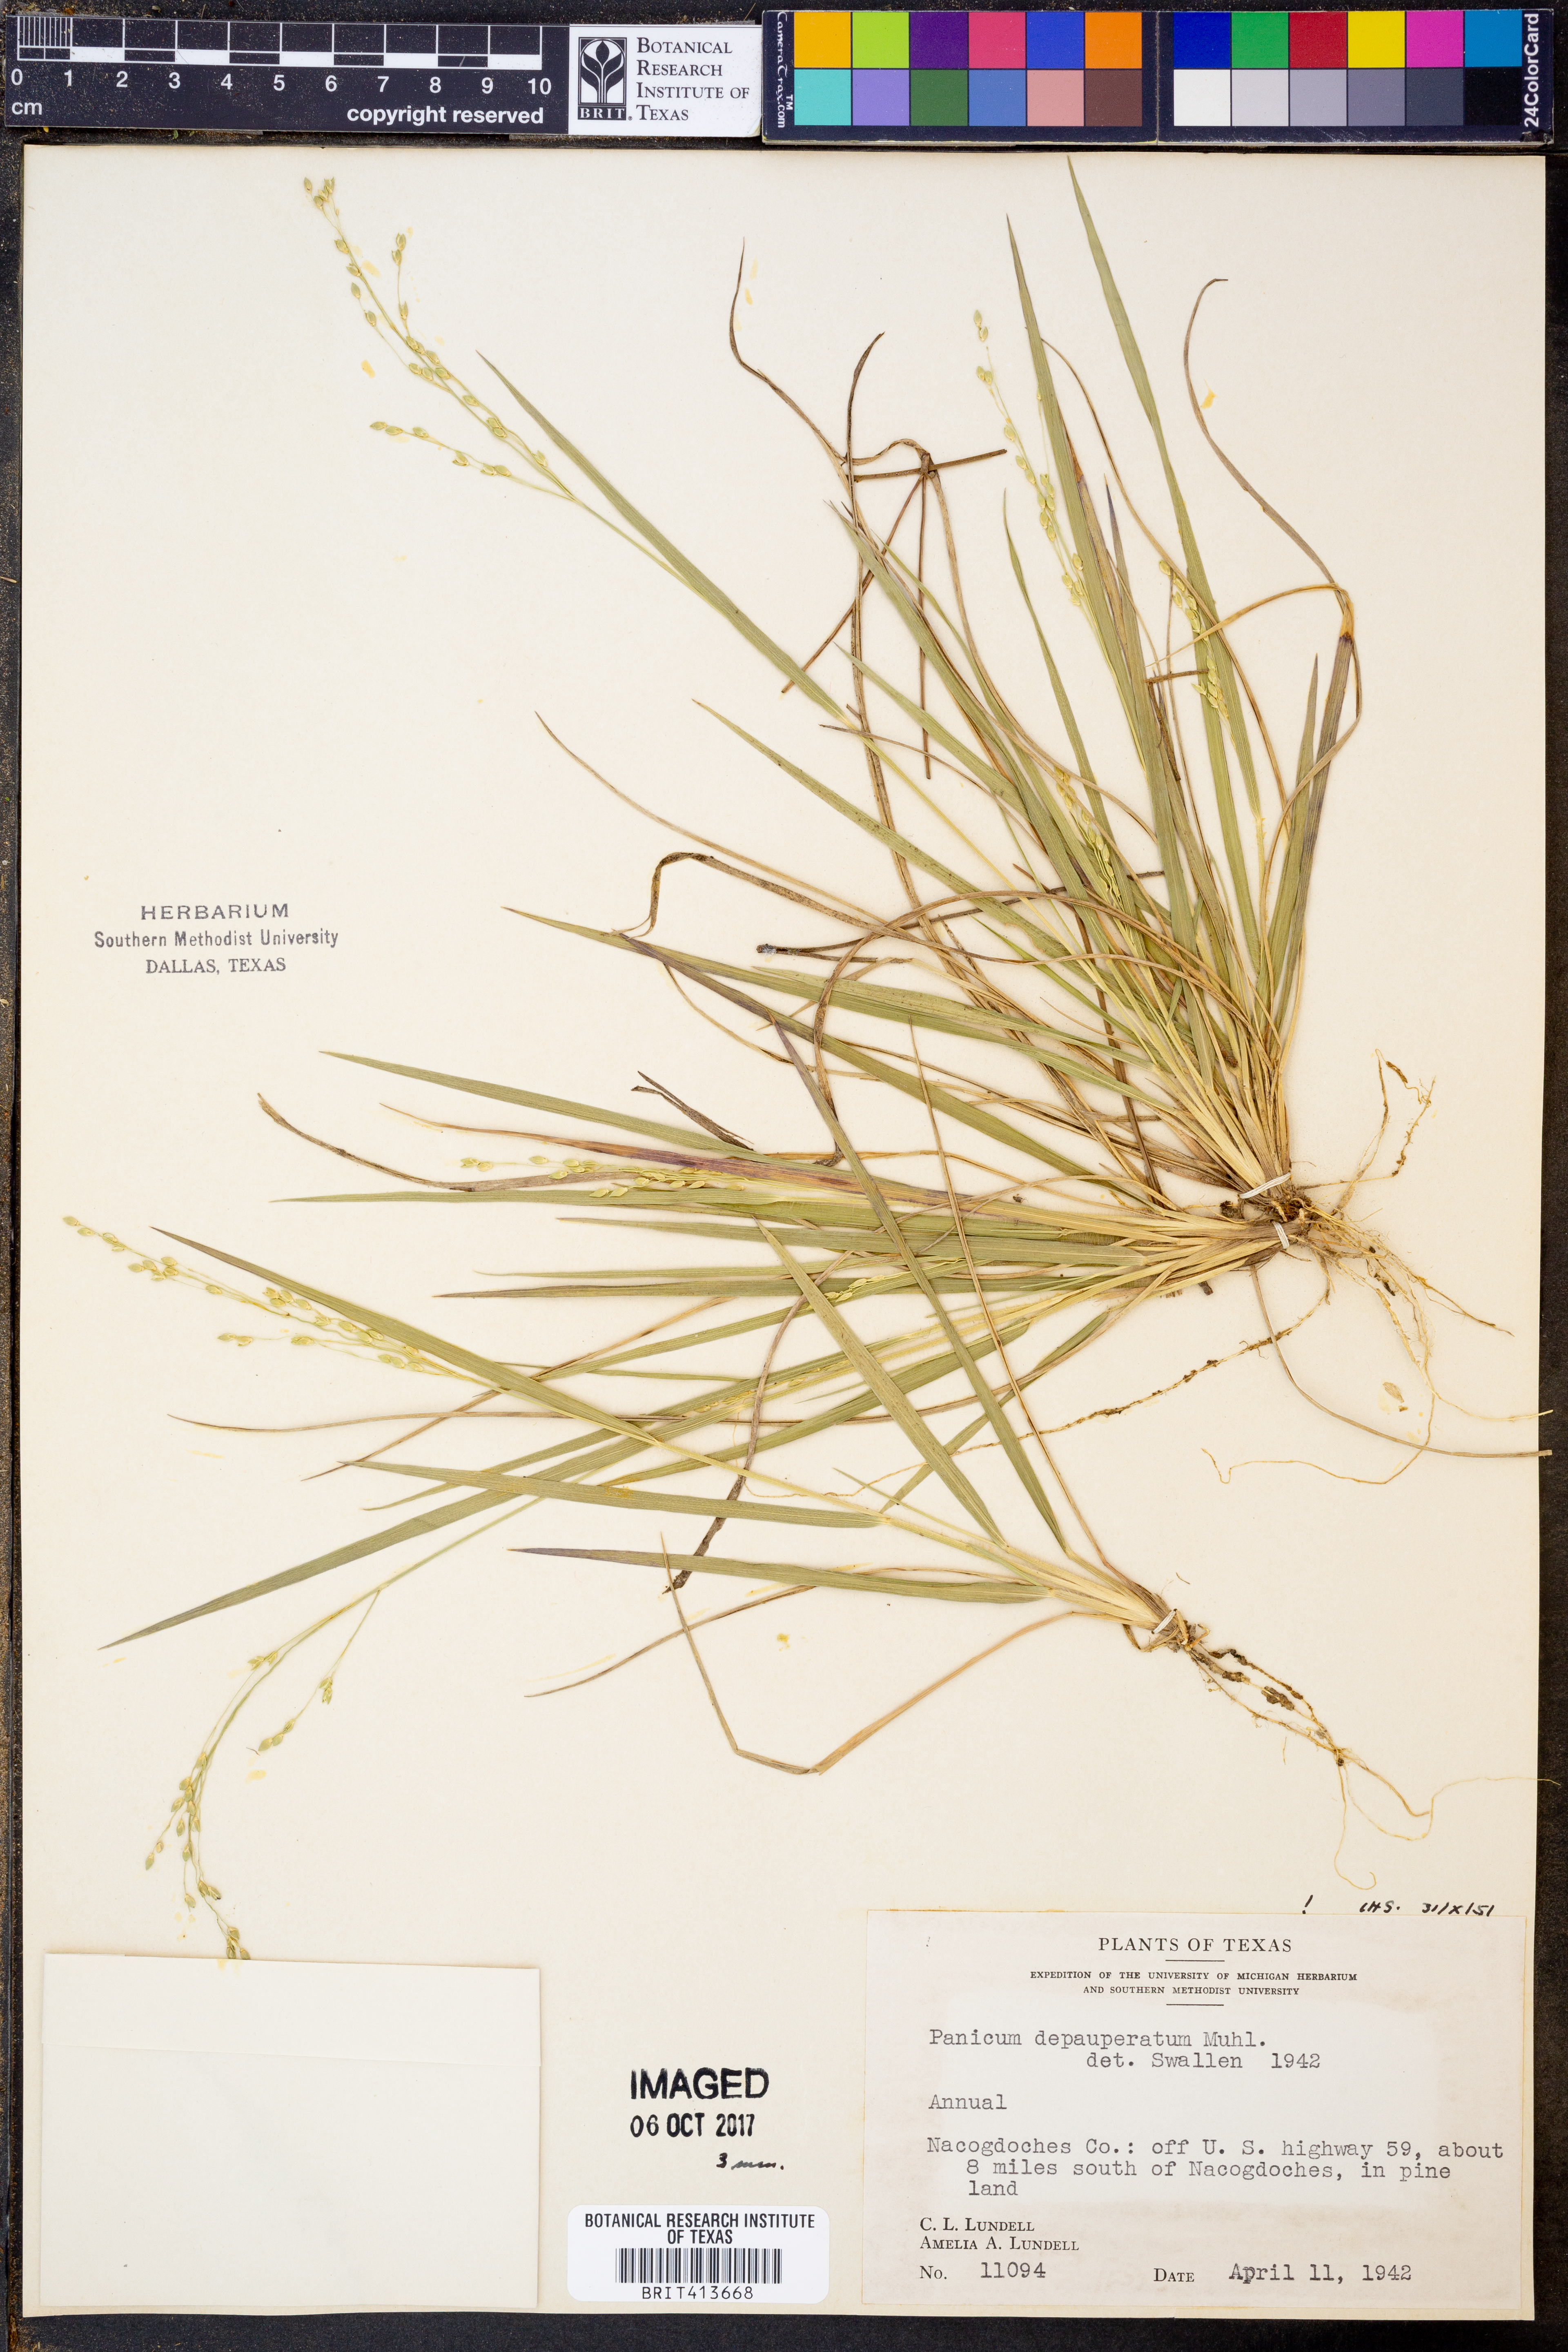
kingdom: Plantae
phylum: Tracheophyta
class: Liliopsida
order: Poales
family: Poaceae
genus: Dichanthelium
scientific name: Dichanthelium depauperatum
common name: Depauperate panicgrass
